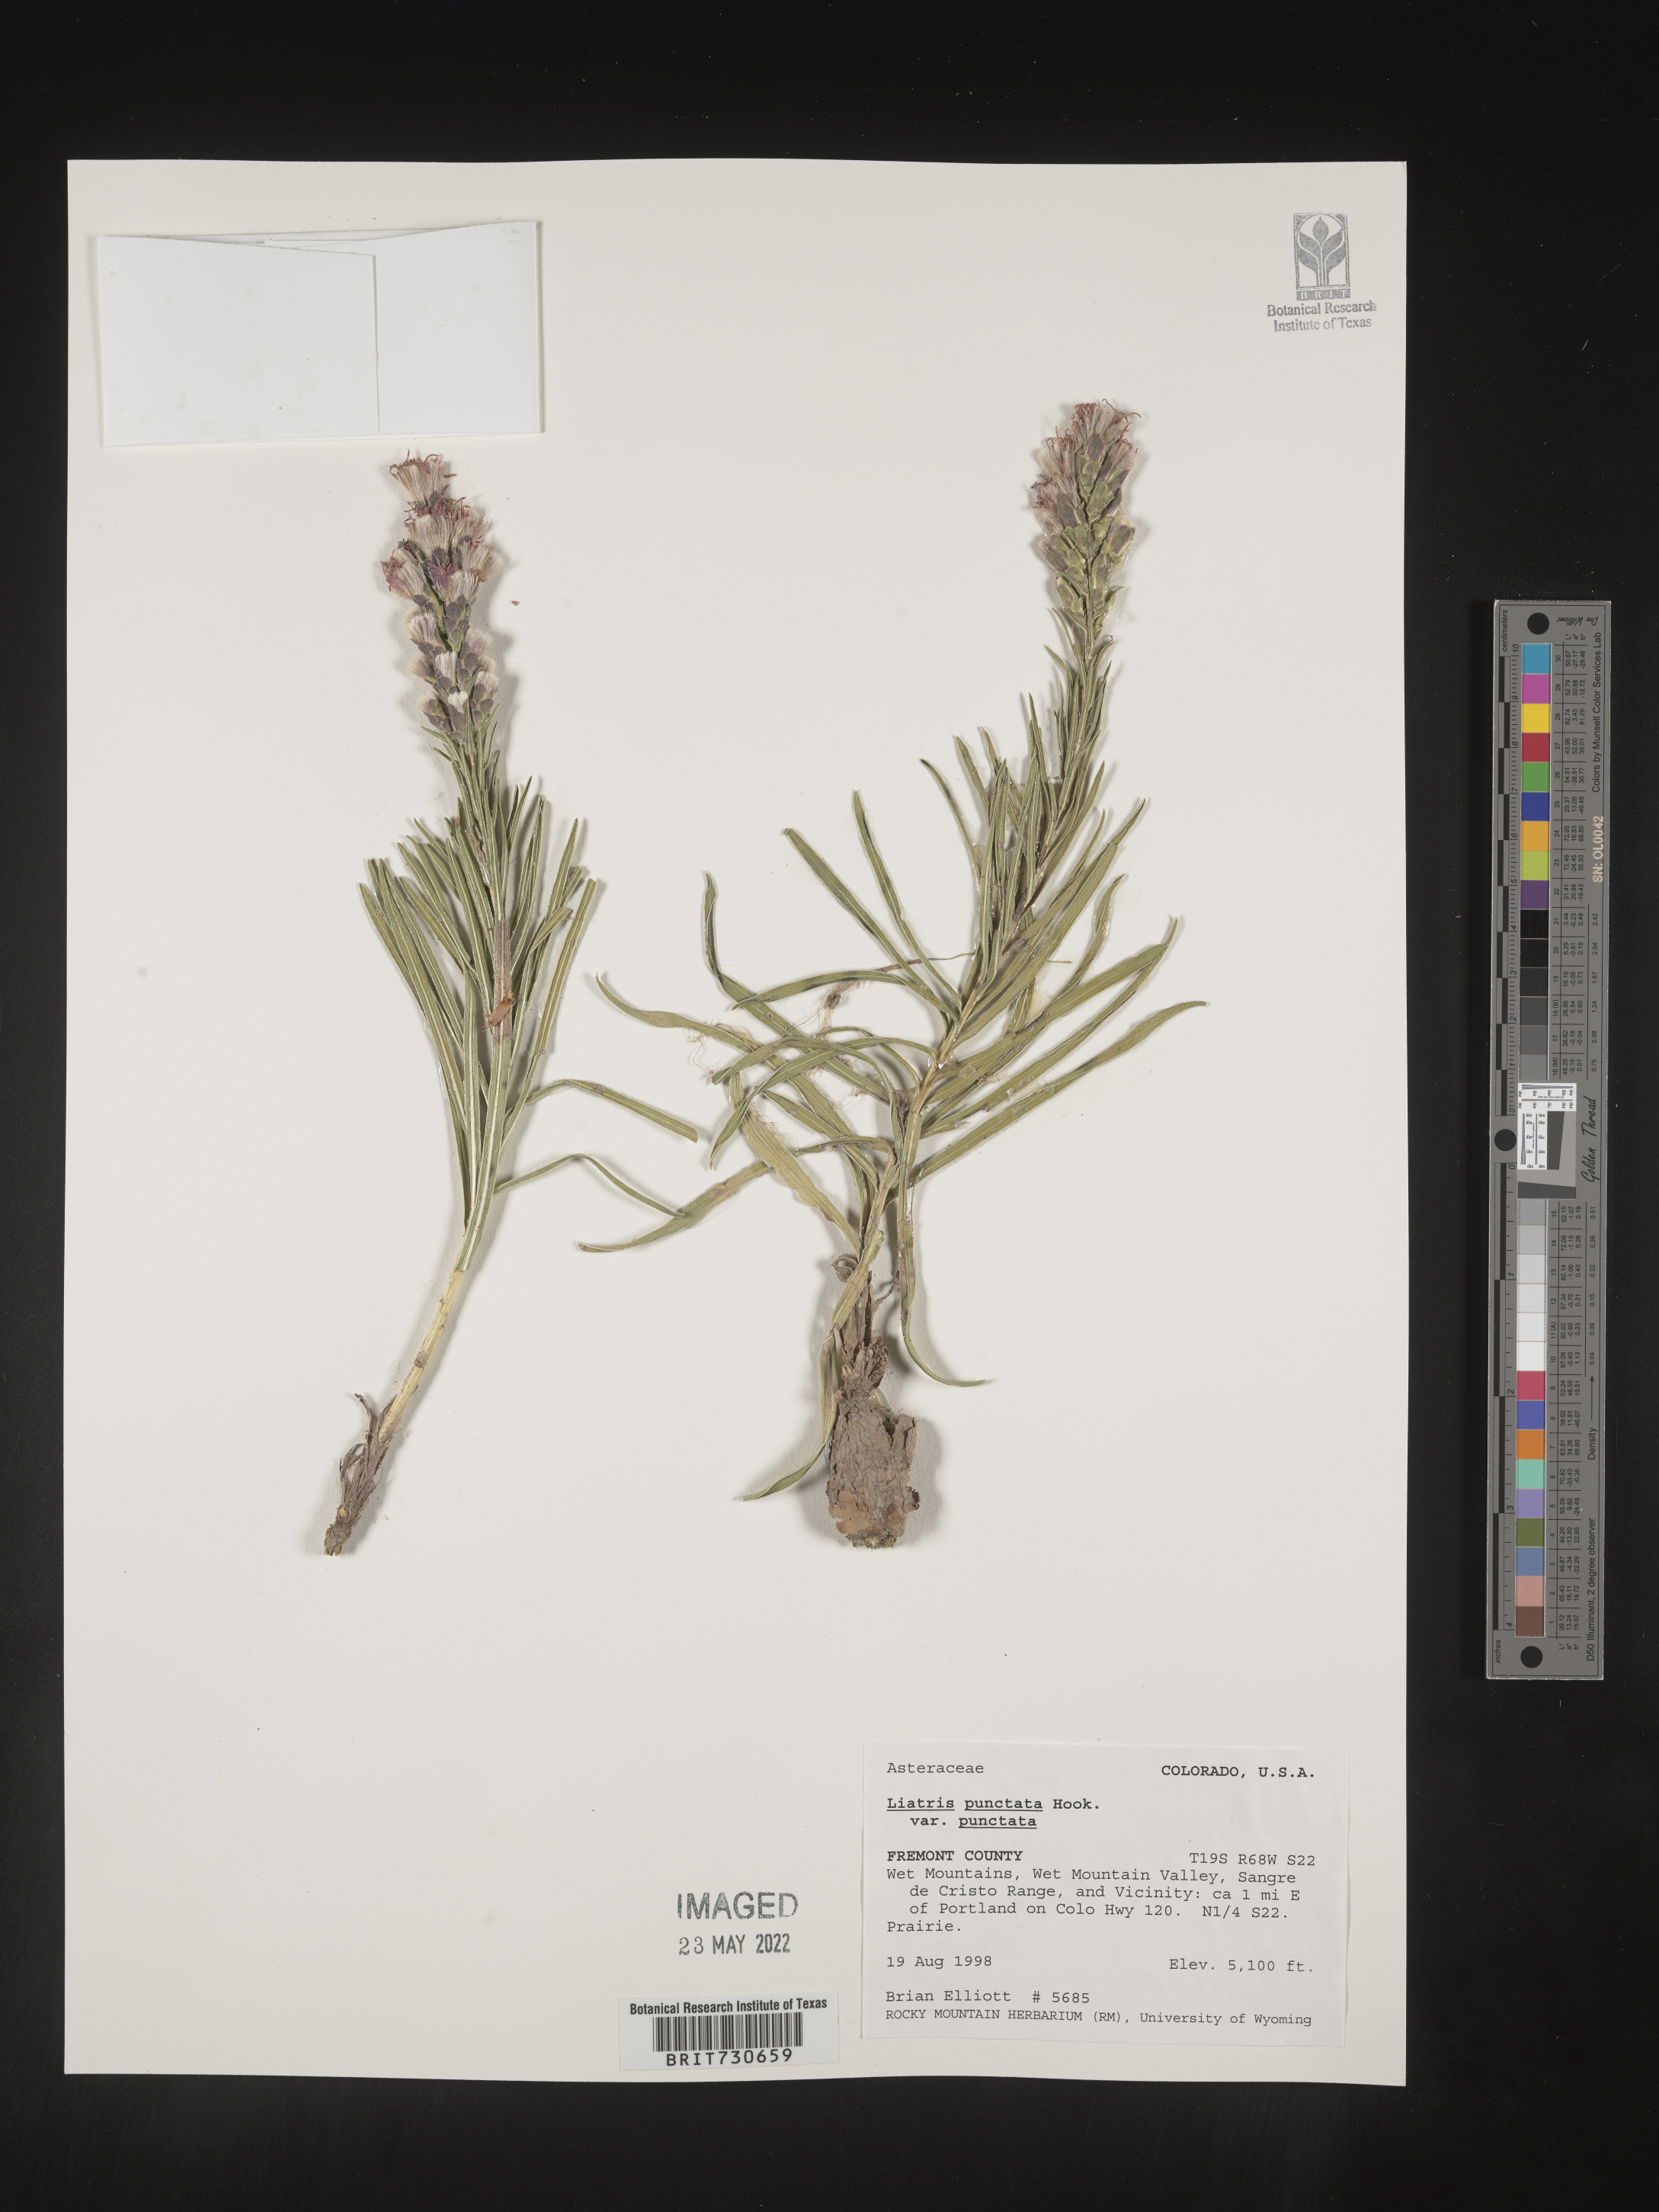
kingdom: Plantae
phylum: Tracheophyta
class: Magnoliopsida
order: Asterales
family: Asteraceae
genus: Liatris
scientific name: Liatris punctata
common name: Dotted gayfeather
